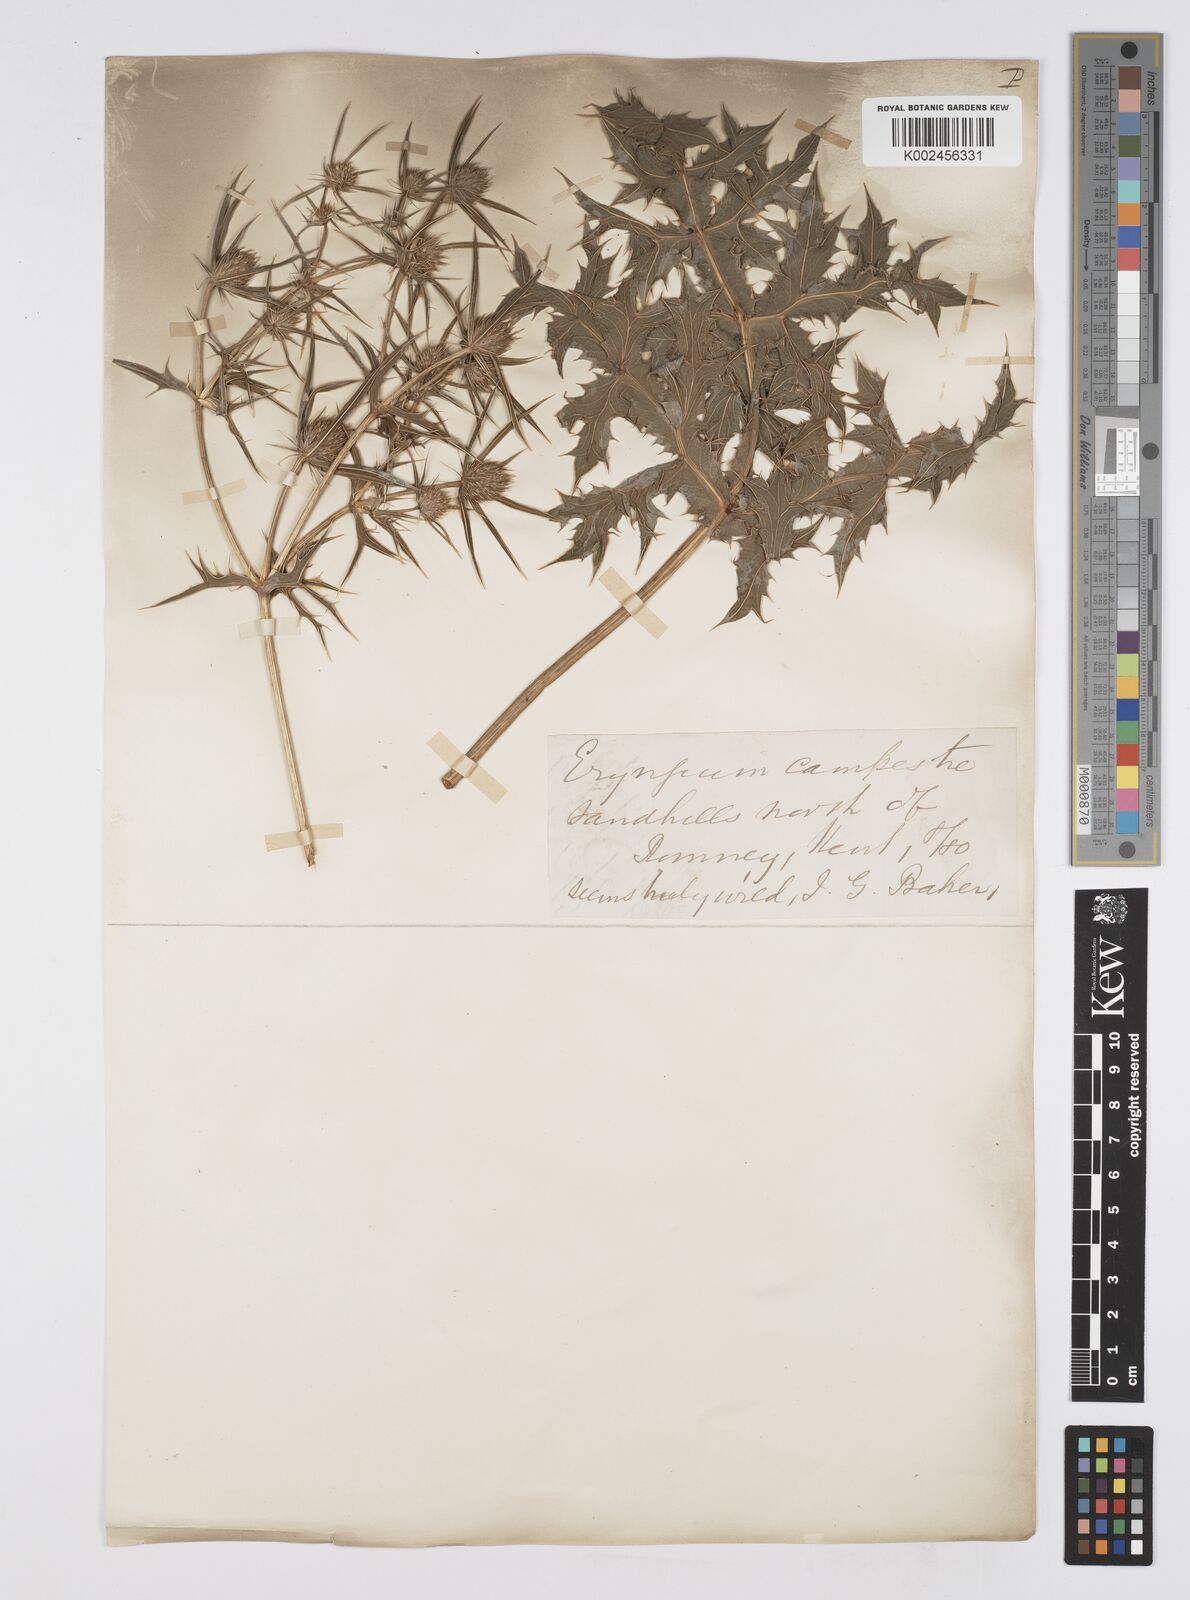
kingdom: Plantae
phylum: Tracheophyta
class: Magnoliopsida
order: Apiales
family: Apiaceae
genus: Eryngium
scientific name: Eryngium campestre
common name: Field eryngo
